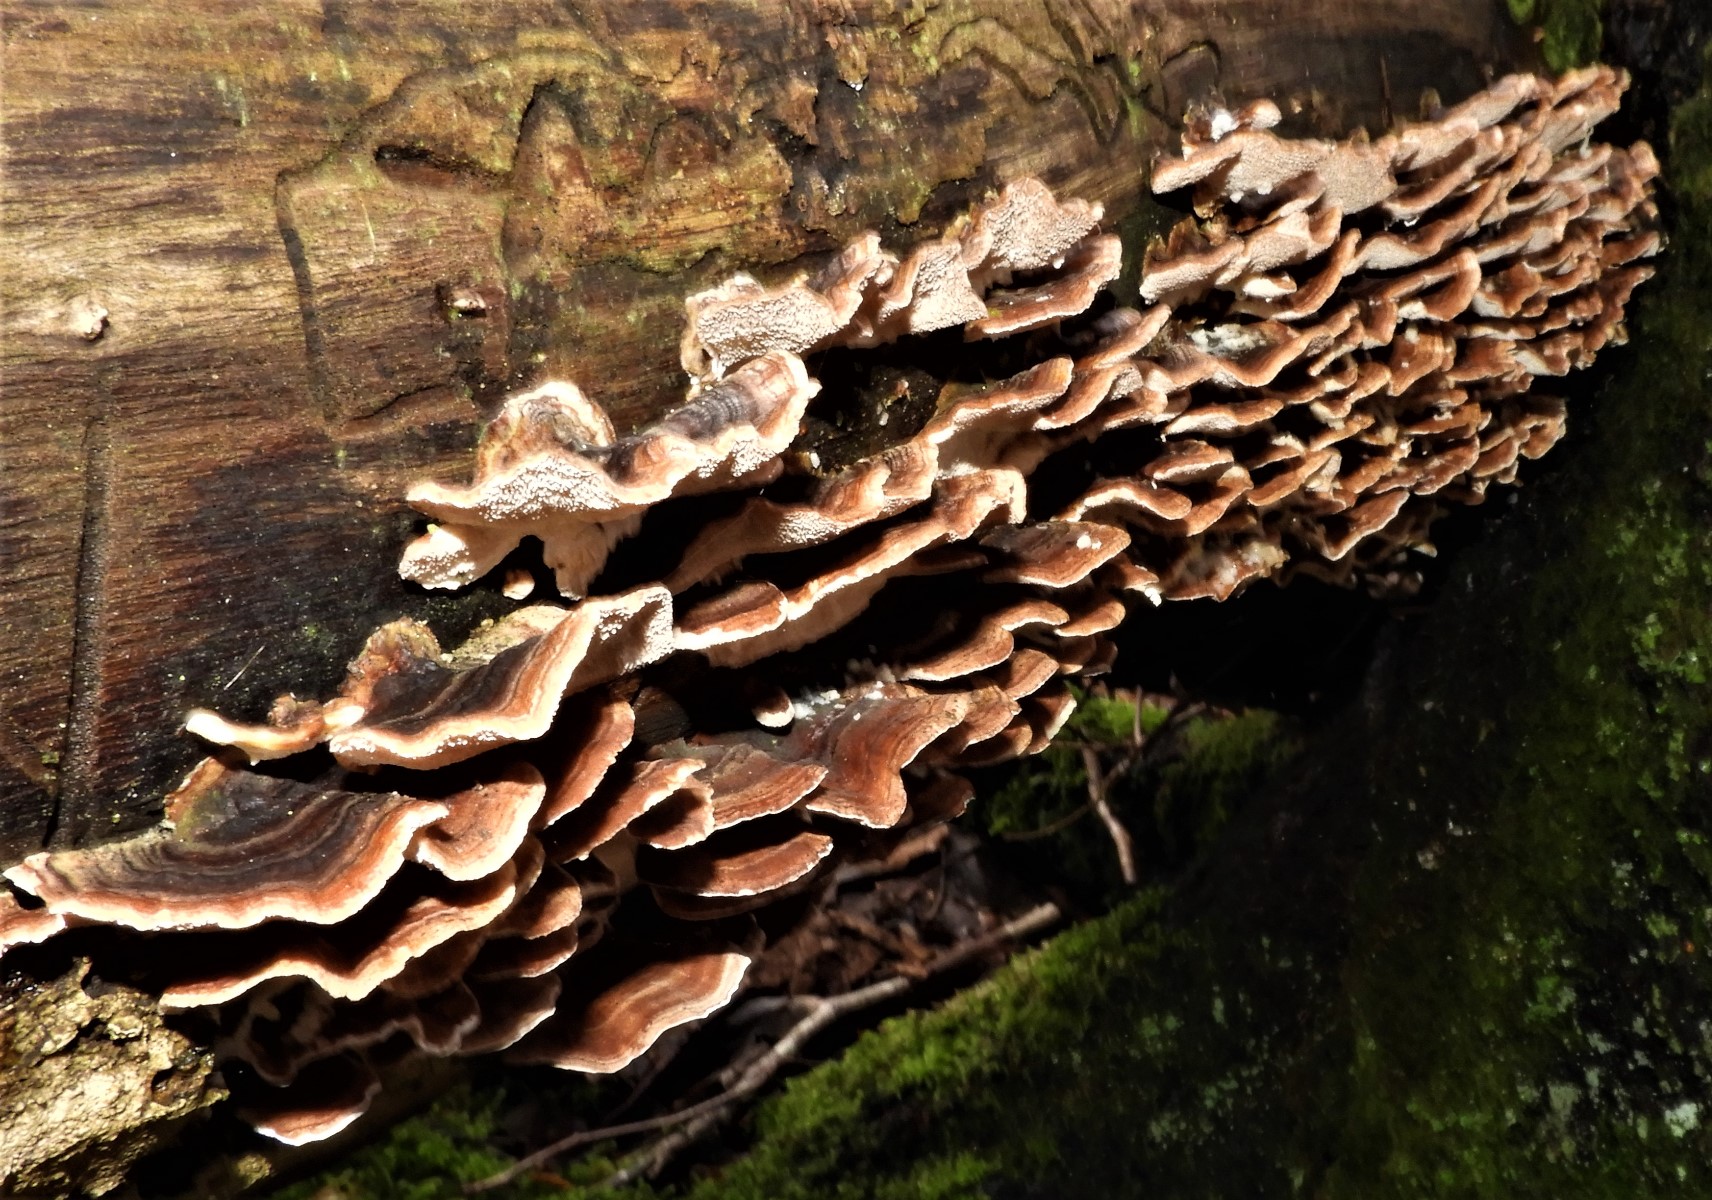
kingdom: Fungi
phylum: Basidiomycota
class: Agaricomycetes
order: Polyporales
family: Polyporaceae
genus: Trametes
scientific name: Trametes versicolor
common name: broget læderporesvamp
